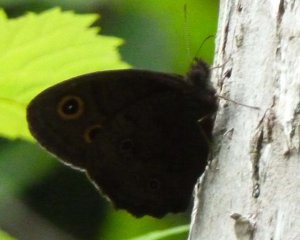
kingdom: Animalia
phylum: Arthropoda
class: Insecta
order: Lepidoptera
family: Nymphalidae
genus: Cercyonis
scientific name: Cercyonis pegala
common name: Common Wood-Nymph
